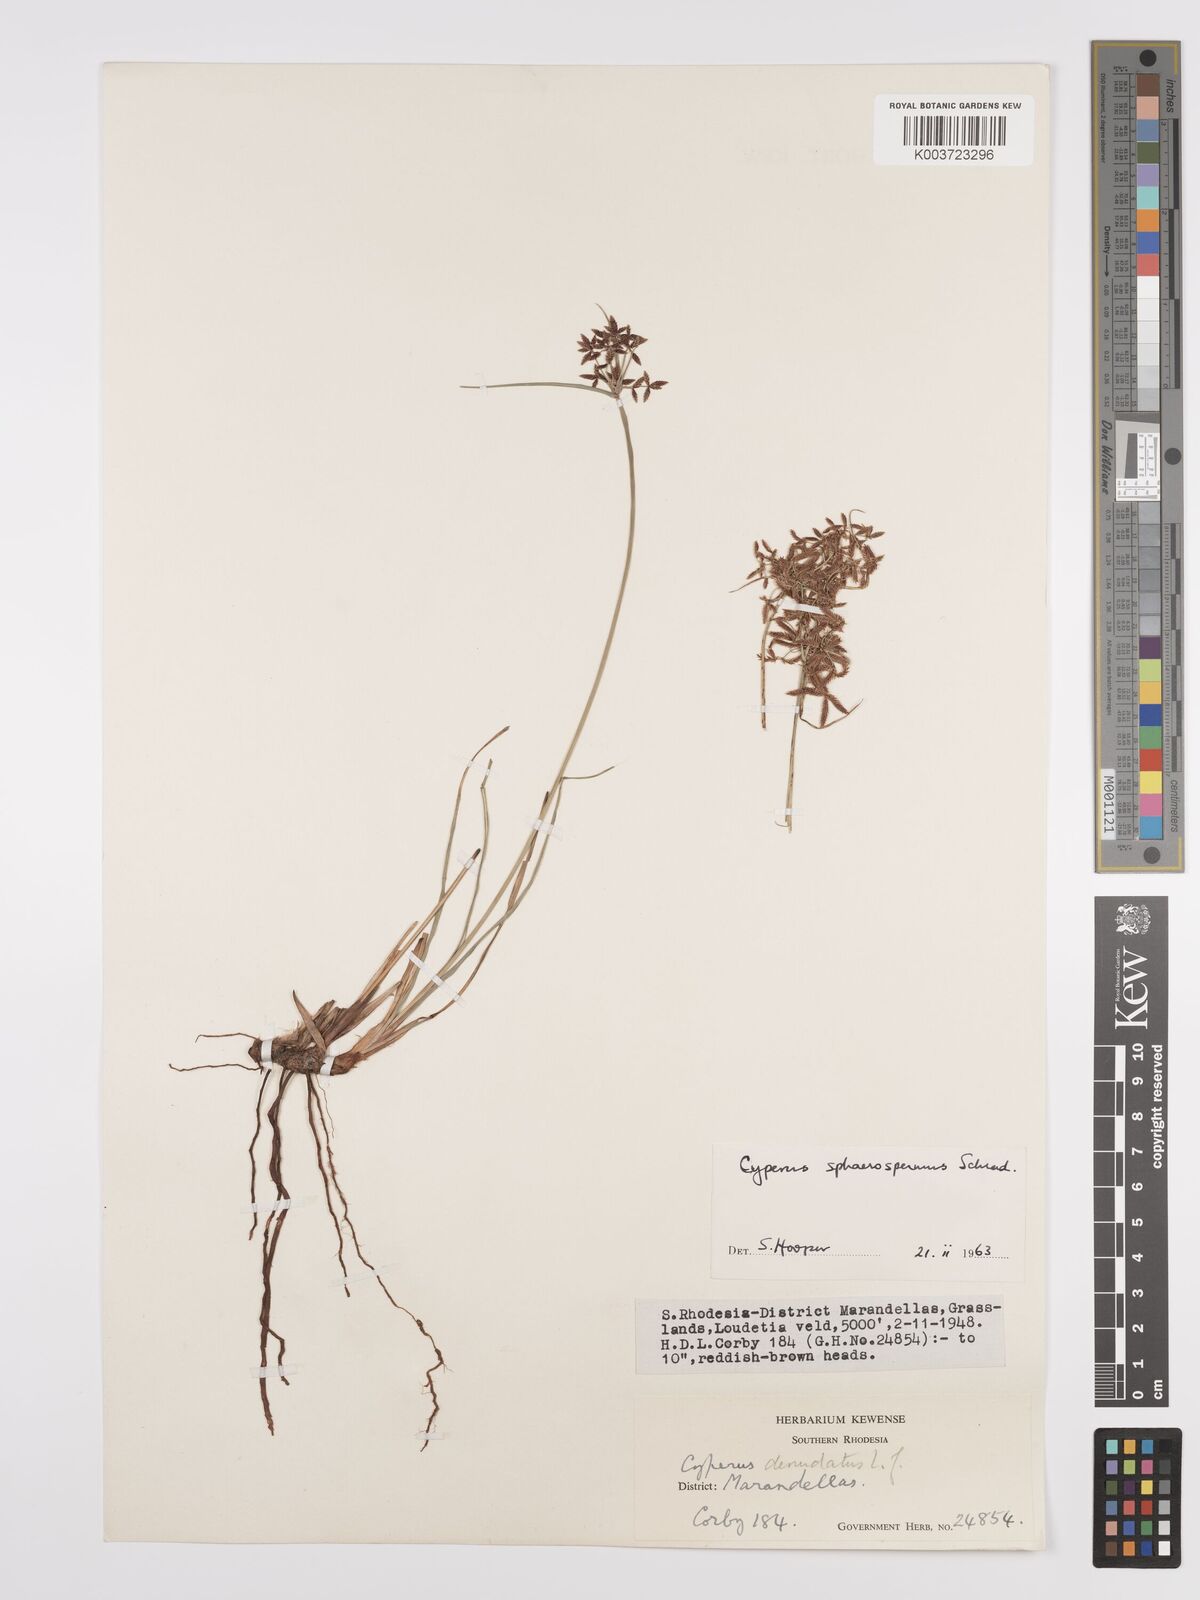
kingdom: Plantae
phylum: Tracheophyta
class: Liliopsida
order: Poales
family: Cyperaceae
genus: Cyperus
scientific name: Cyperus denudatus
